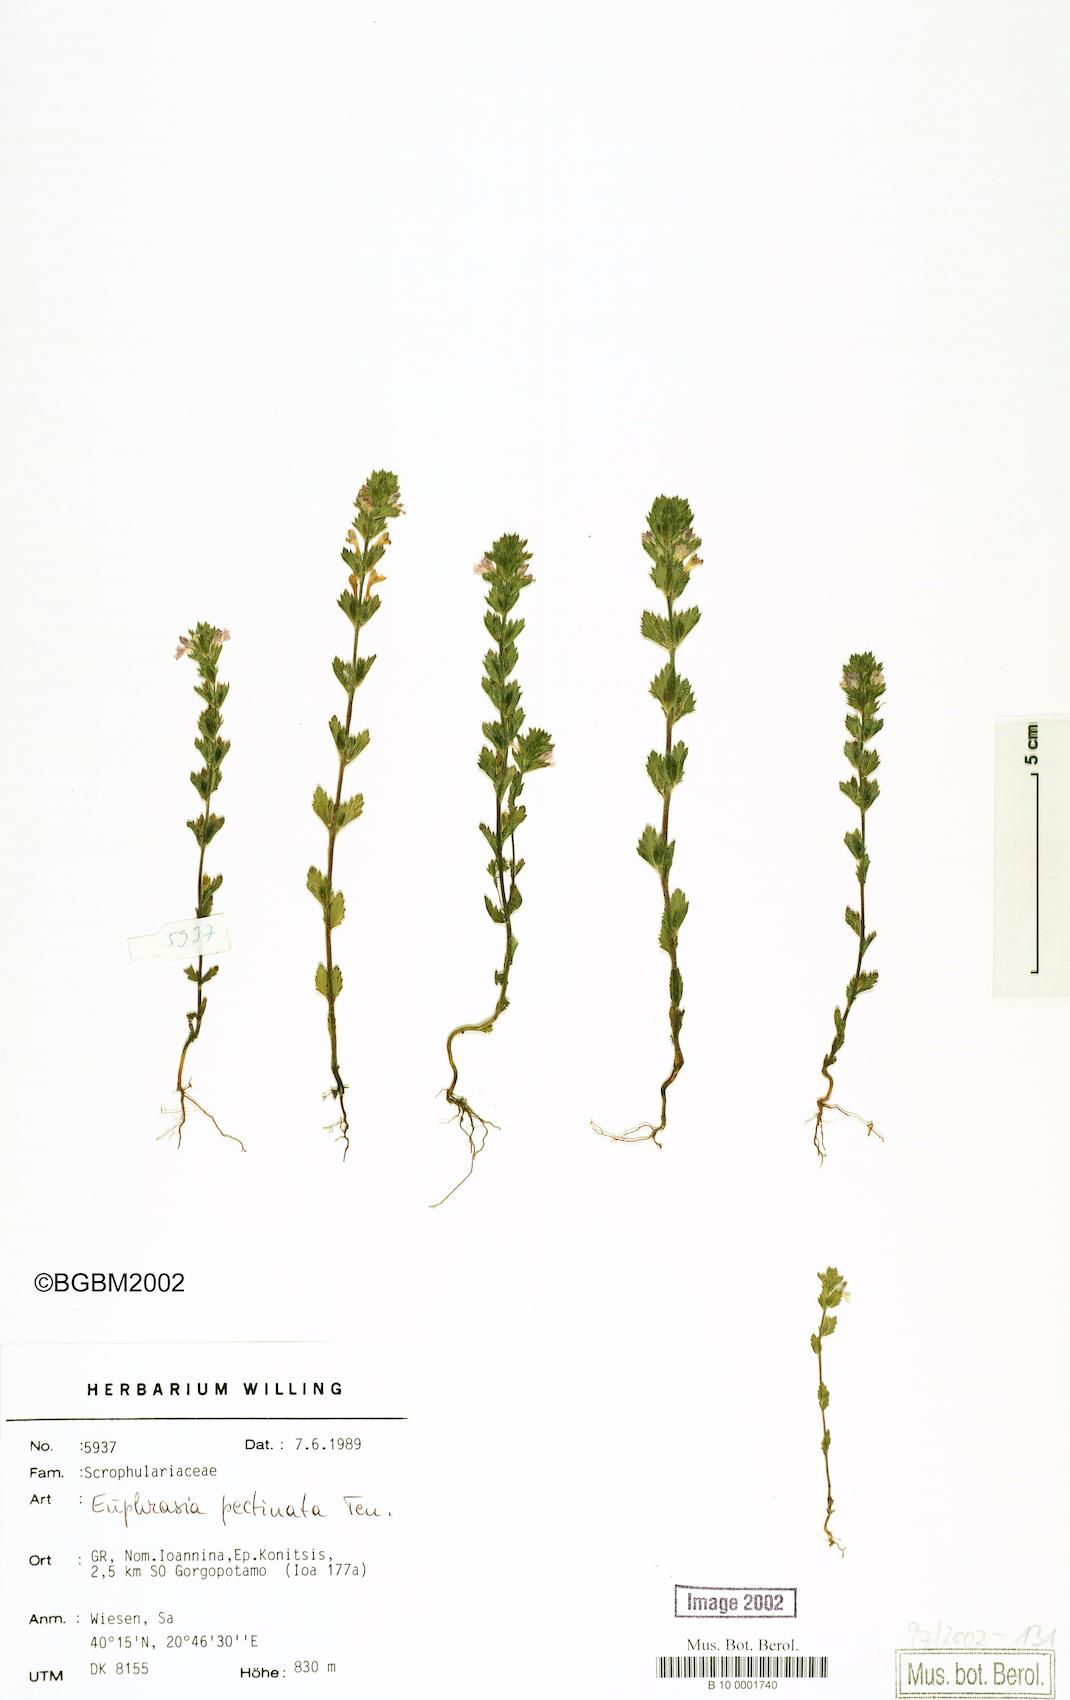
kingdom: Plantae
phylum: Tracheophyta
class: Magnoliopsida
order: Lamiales
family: Orobanchaceae
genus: Euphrasia
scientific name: Euphrasia pectinata
